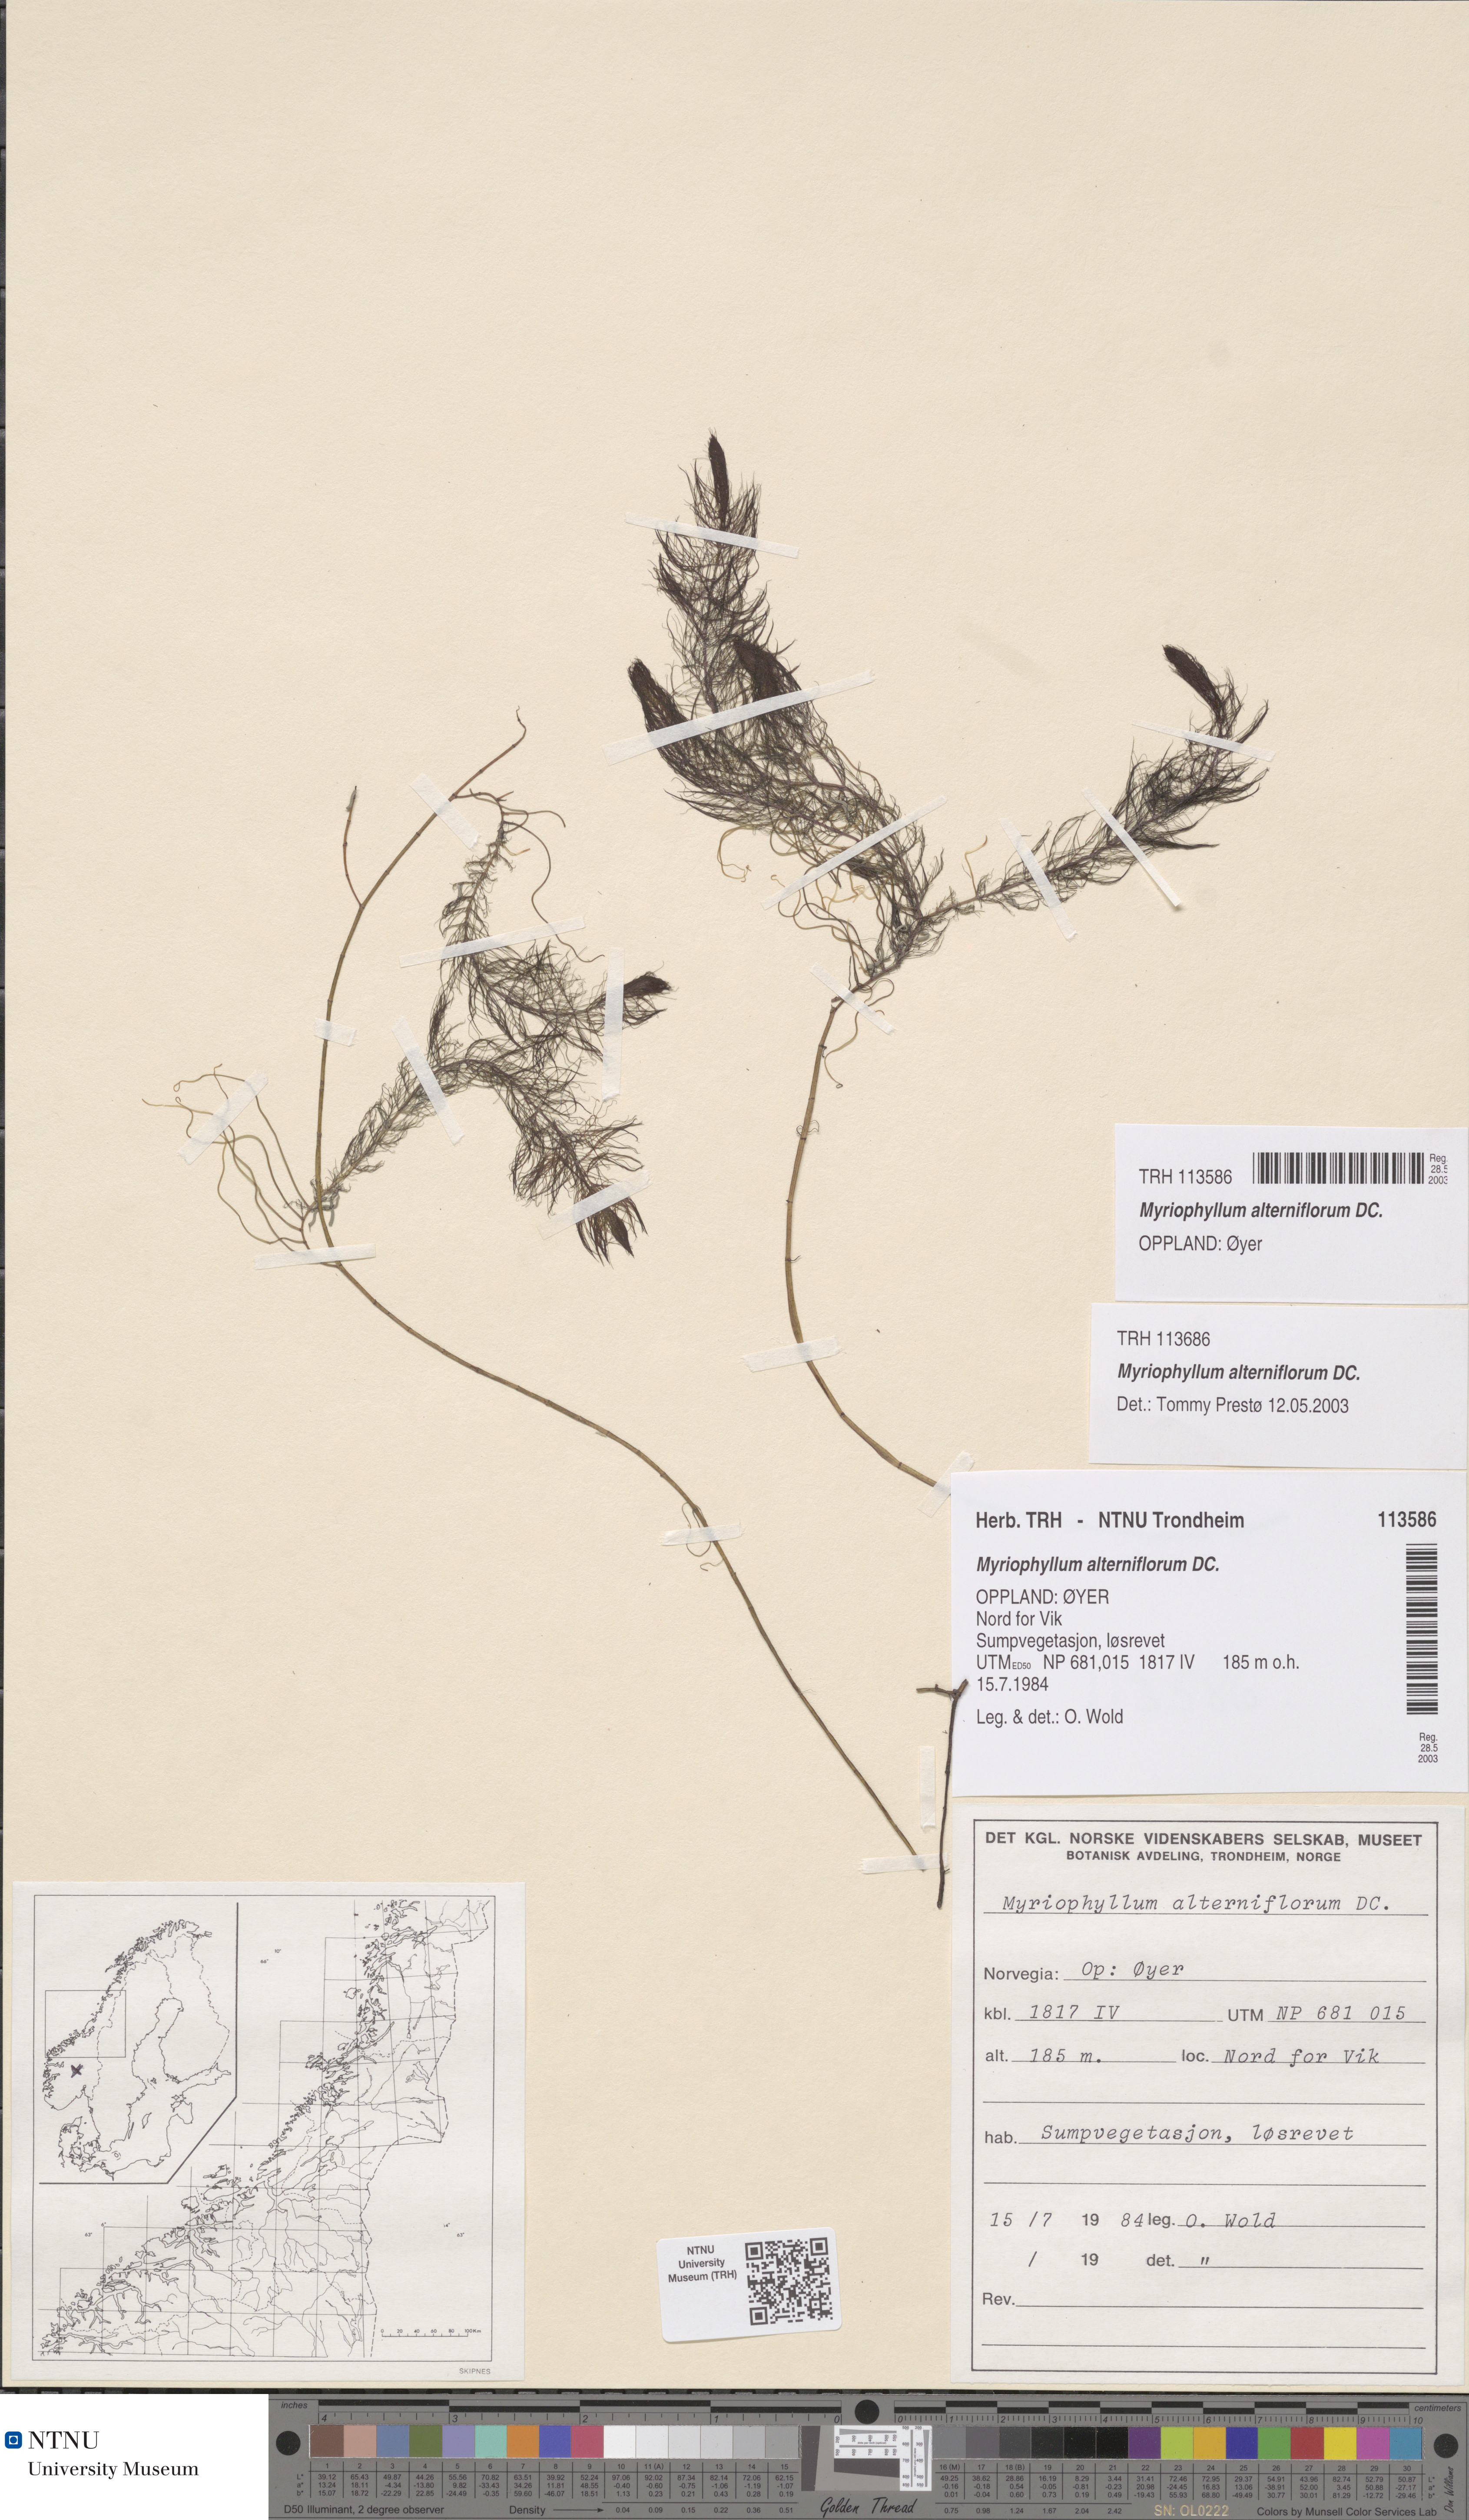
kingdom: Plantae
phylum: Tracheophyta
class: Magnoliopsida
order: Saxifragales
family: Haloragaceae
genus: Myriophyllum
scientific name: Myriophyllum alterniflorum
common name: Alternate water-milfoil
